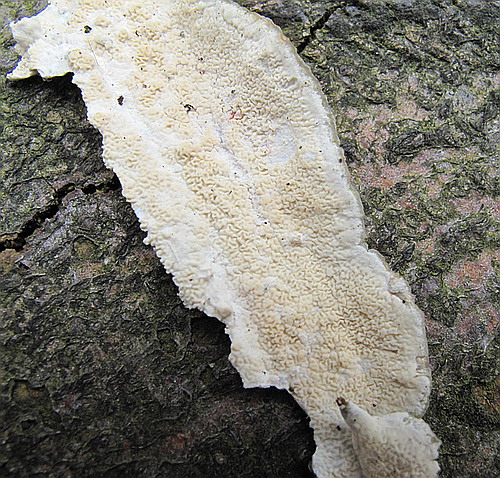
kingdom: Fungi
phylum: Basidiomycota
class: Agaricomycetes
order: Polyporales
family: Irpicaceae
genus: Byssomerulius
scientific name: Byssomerulius corium
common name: læder-åresvamp
